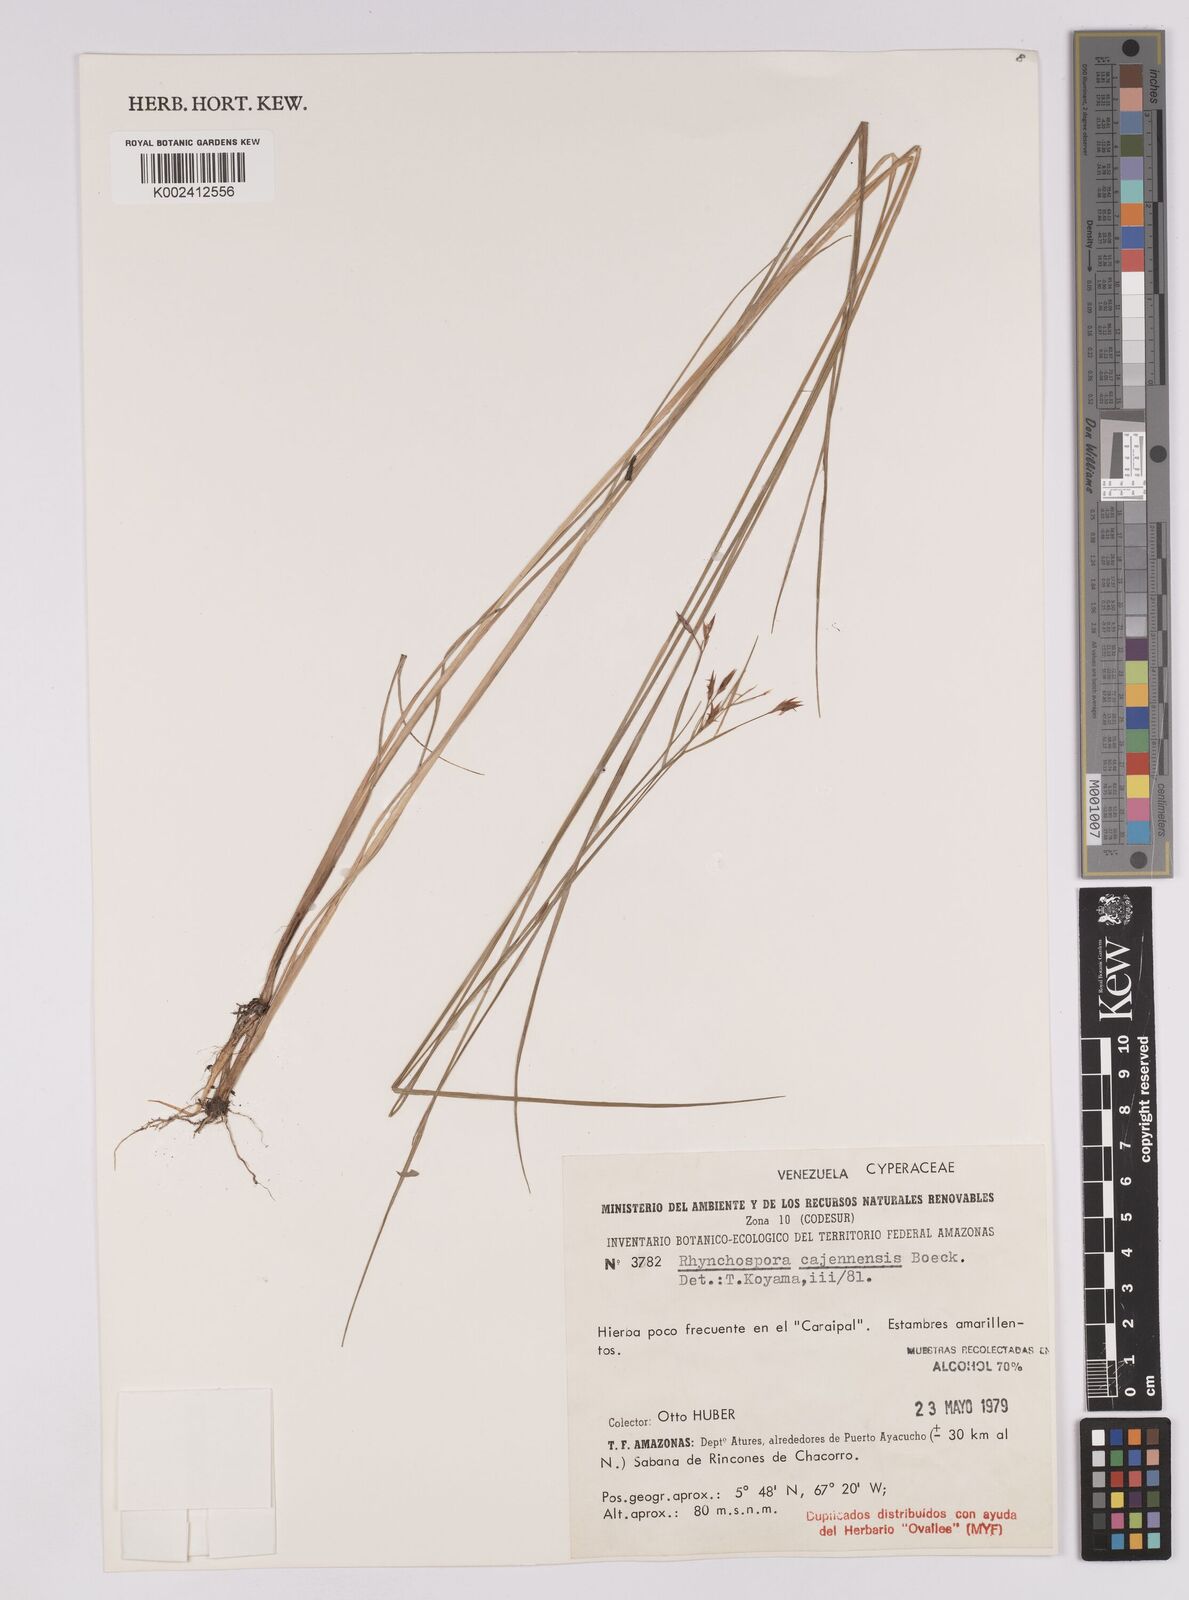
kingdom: Plantae
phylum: Tracheophyta
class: Liliopsida
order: Poales
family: Cyperaceae
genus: Rhynchospora
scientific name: Rhynchospora cajennensis
